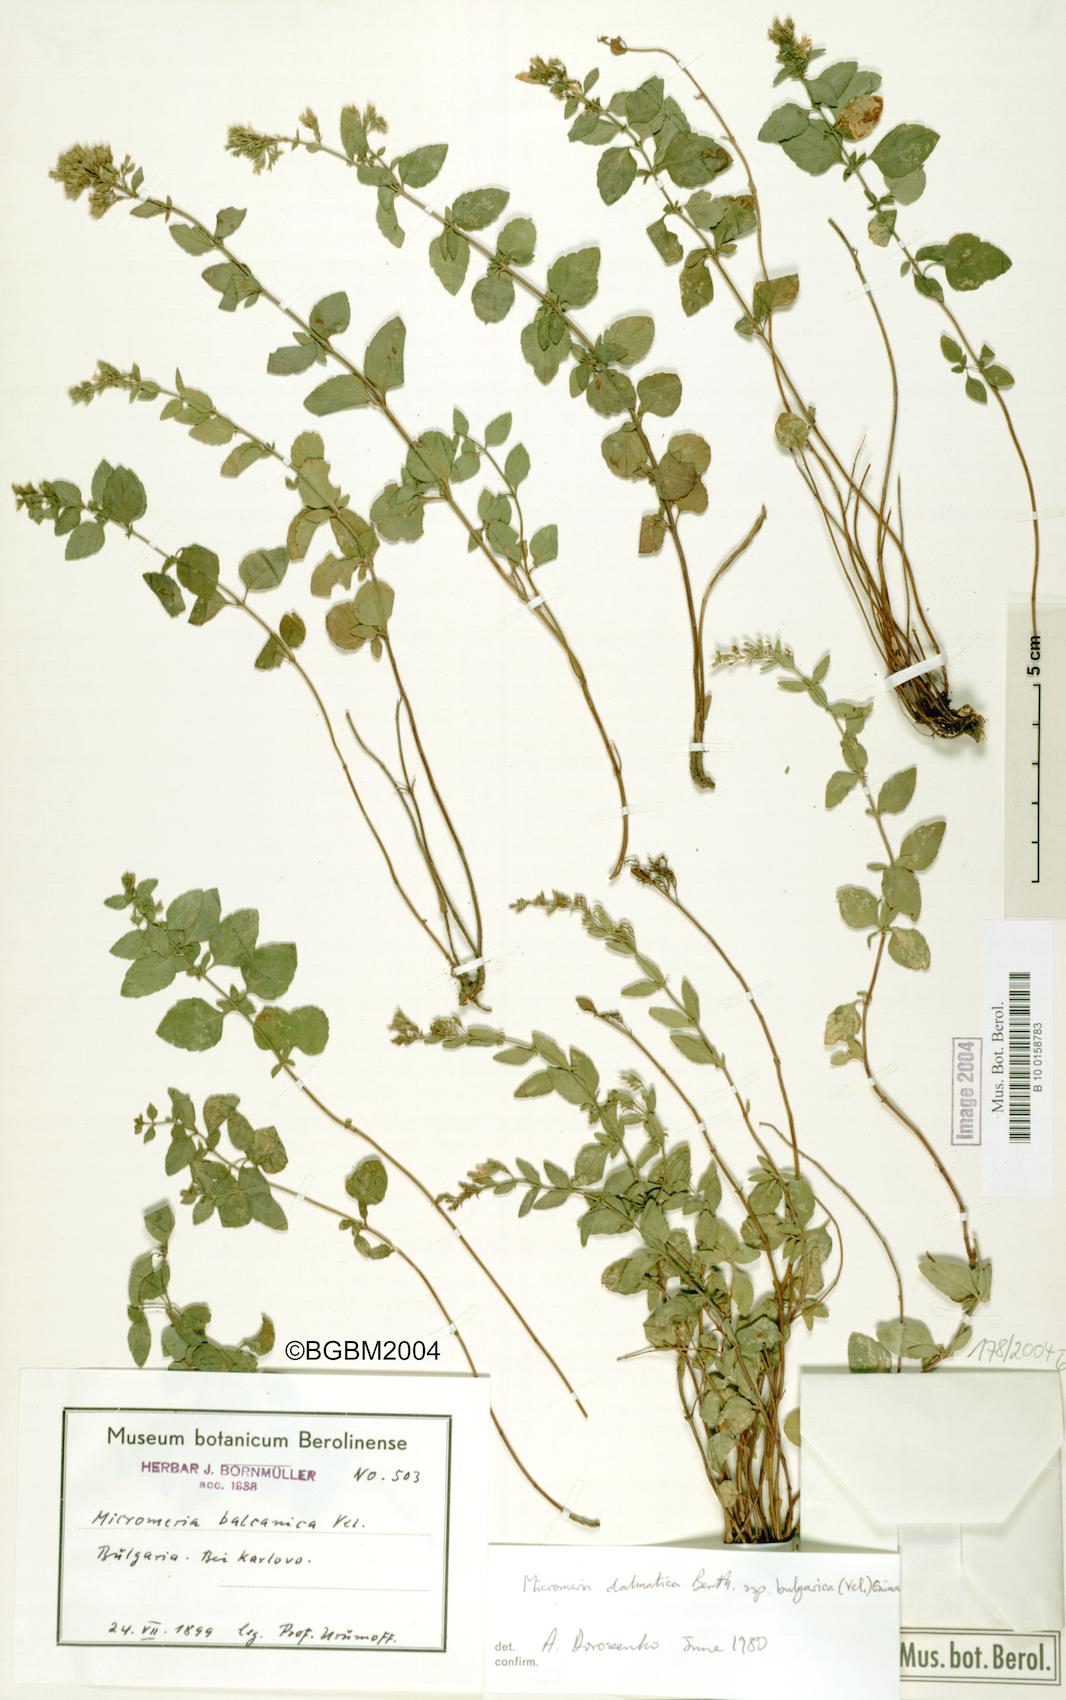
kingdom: Plantae
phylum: Tracheophyta
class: Magnoliopsida
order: Lamiales
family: Lamiaceae
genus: Clinopodium
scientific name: Clinopodium frivaldszkyanum
